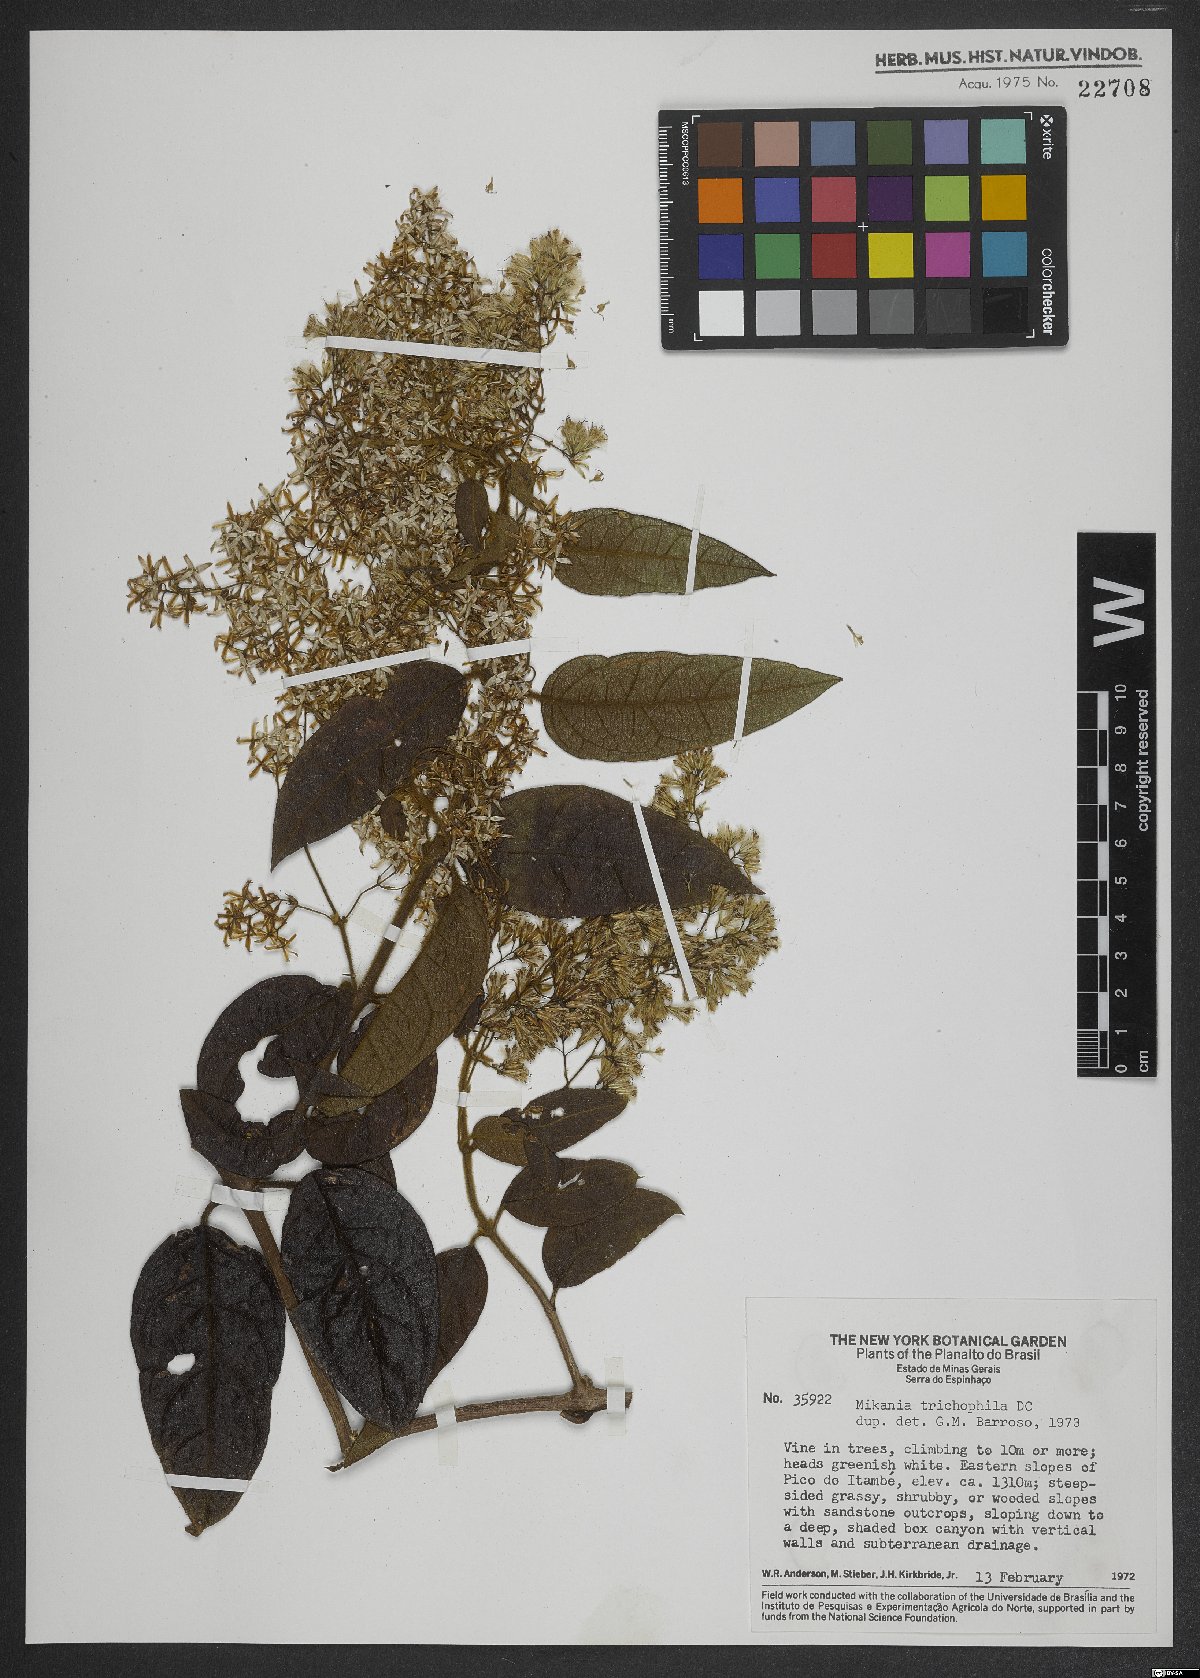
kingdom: Plantae
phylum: Tracheophyta
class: Magnoliopsida
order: Asterales
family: Asteraceae
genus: Mikania
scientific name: Mikania trichophila
